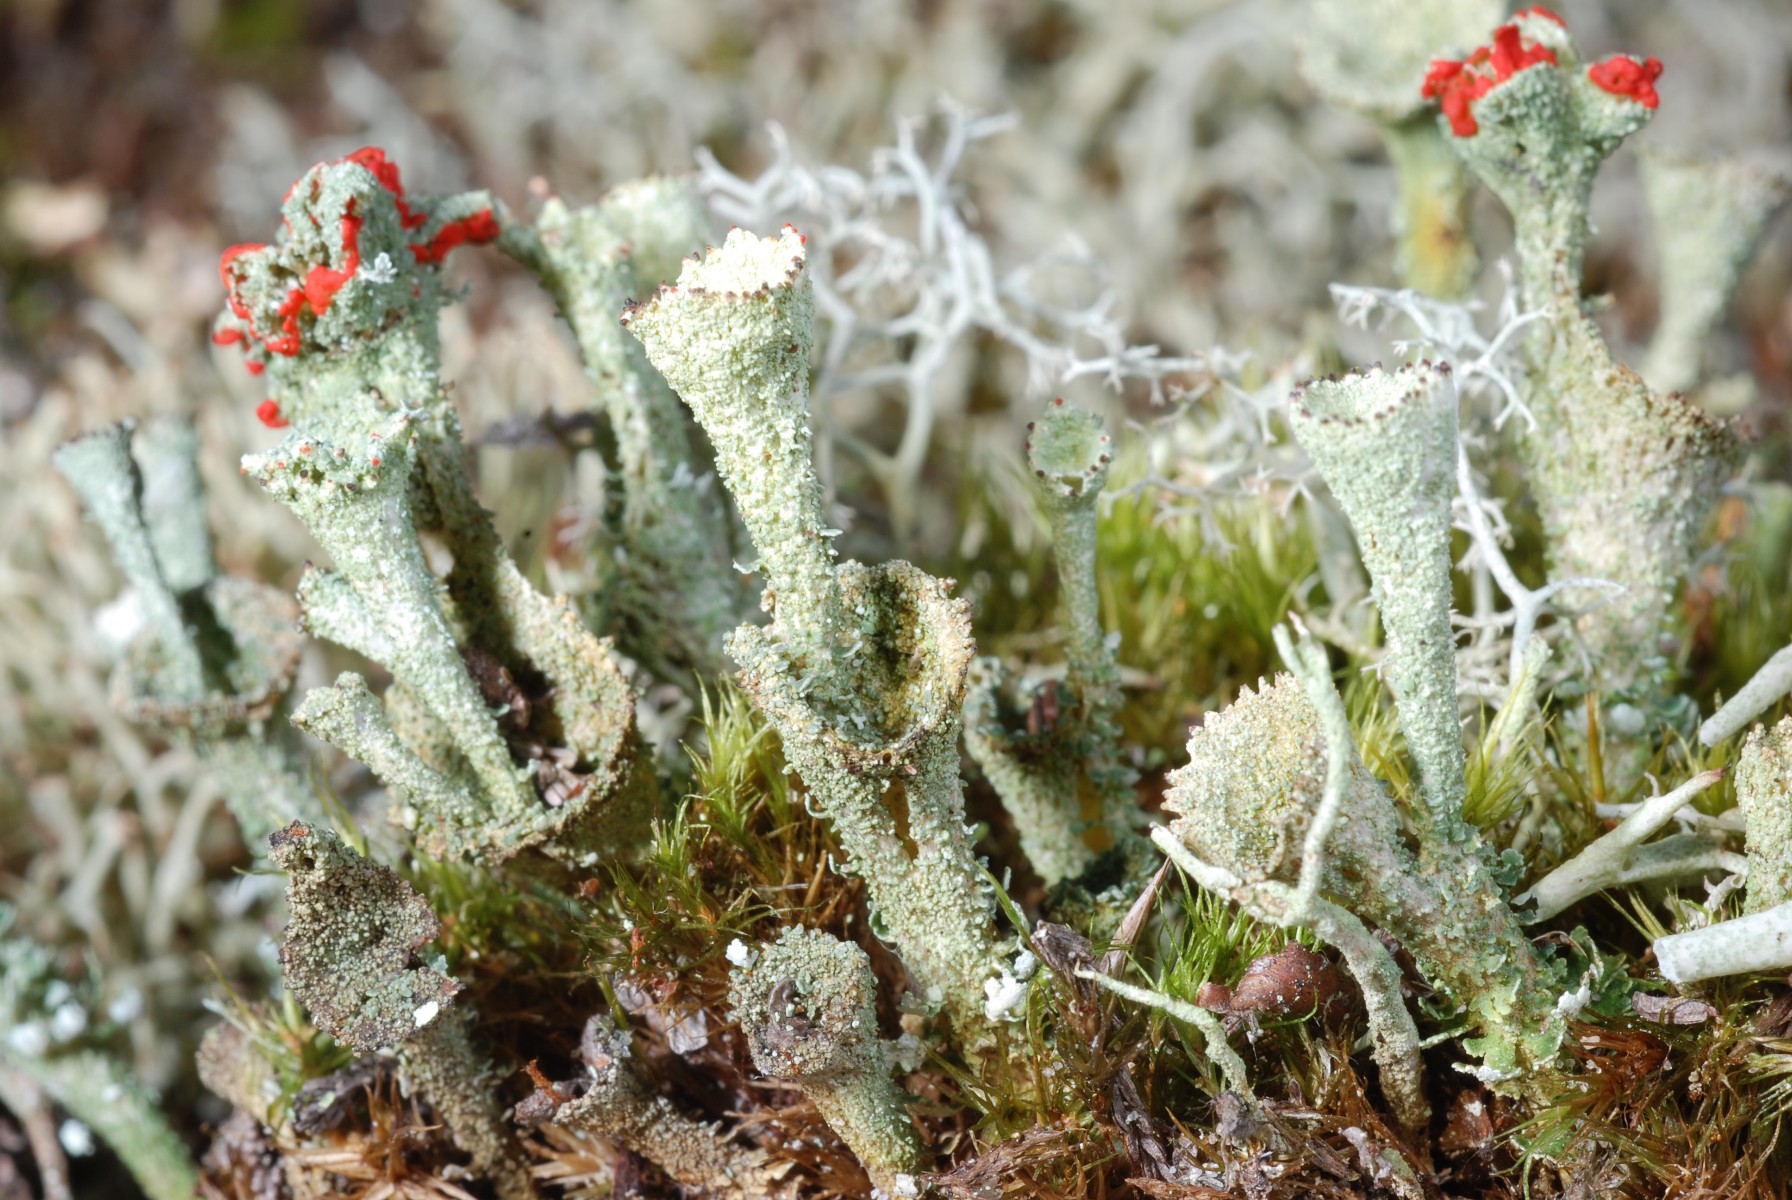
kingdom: Fungi
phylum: Ascomycota
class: Lecanoromycetes
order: Lecanorales
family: Cladoniaceae
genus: Cladonia
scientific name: Cladonia diversa
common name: rød bægerlav
